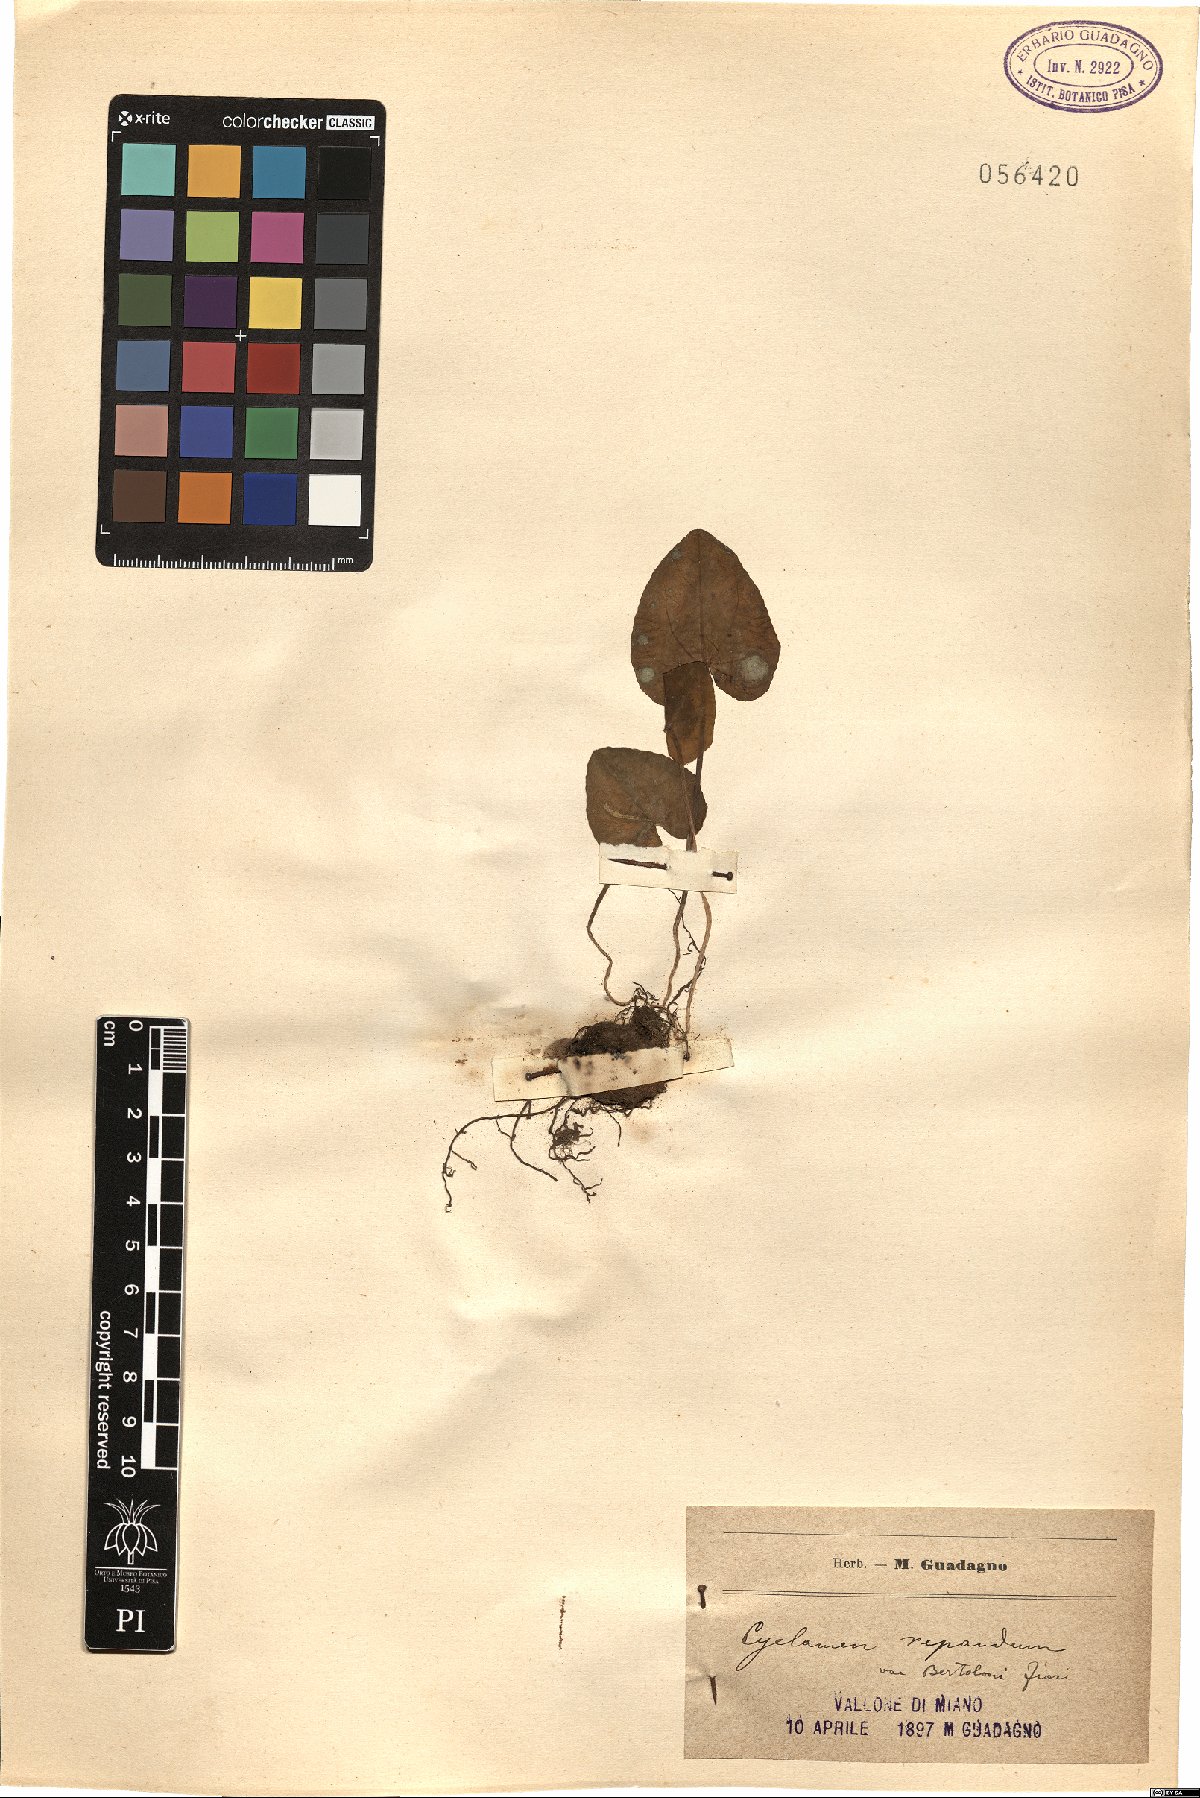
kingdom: Plantae
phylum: Tracheophyta
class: Magnoliopsida
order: Ericales
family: Primulaceae
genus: Cyclamen
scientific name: Cyclamen repandum
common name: Spring sowbread
